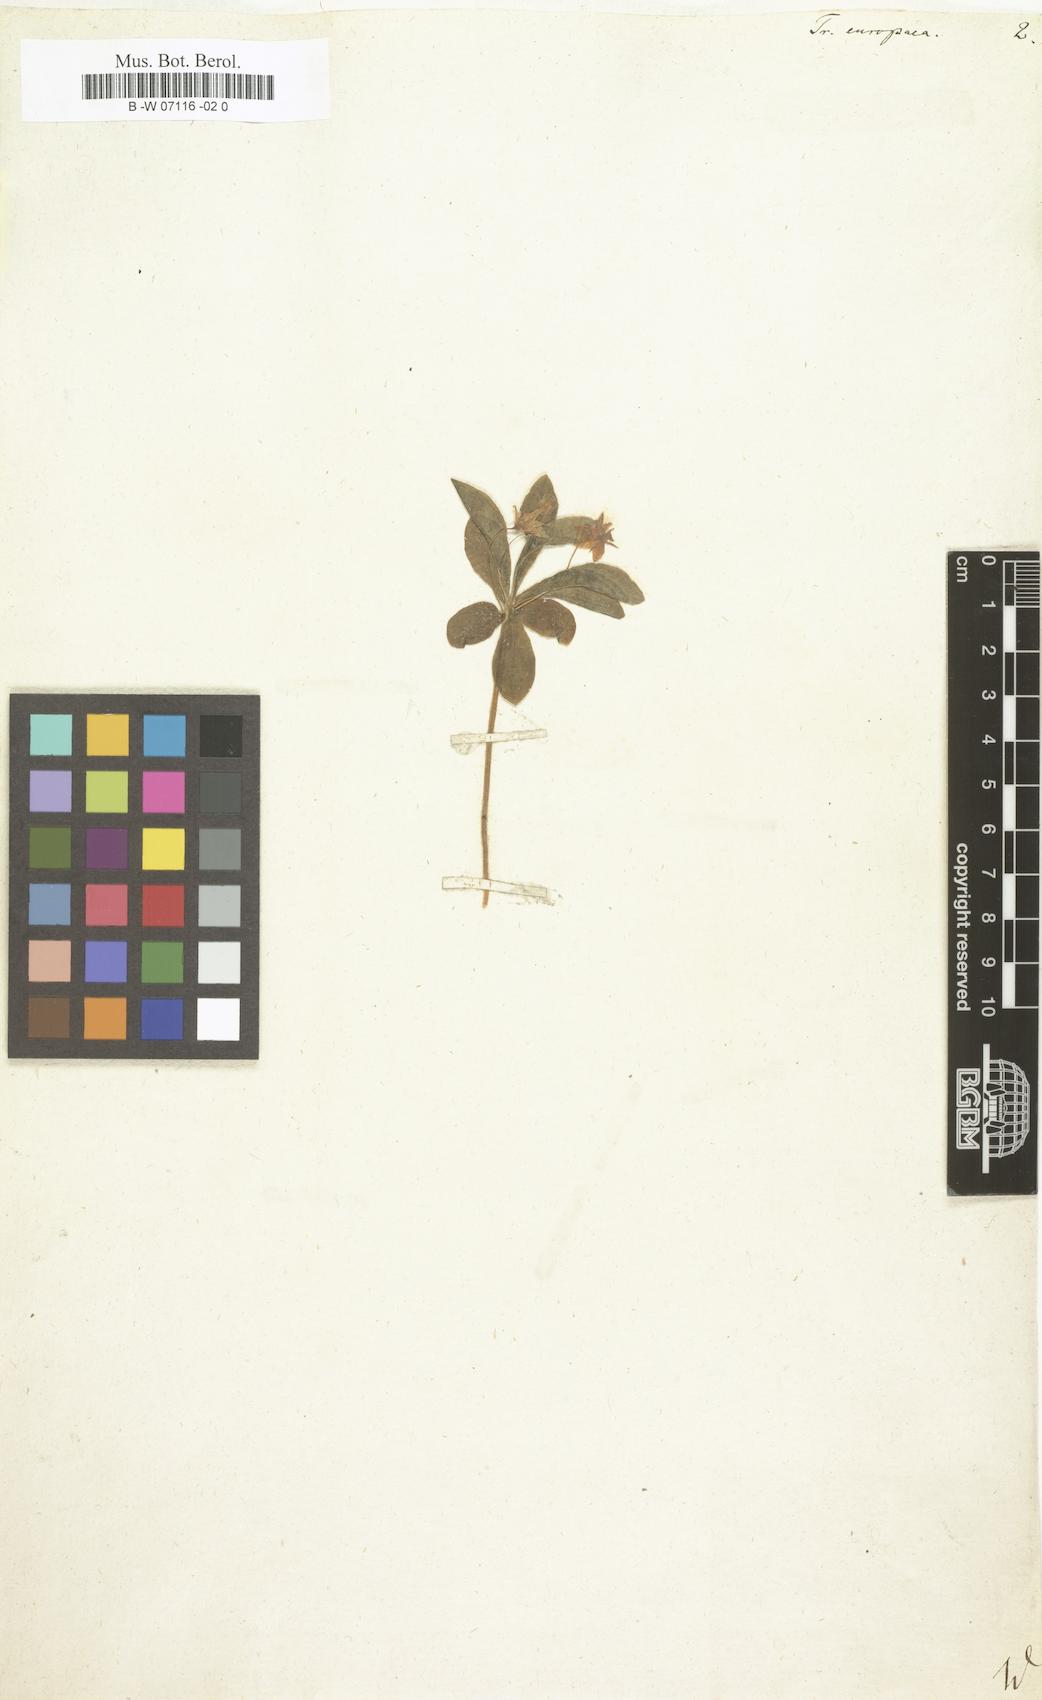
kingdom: Plantae
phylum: Tracheophyta
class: Magnoliopsida
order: Ericales
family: Primulaceae
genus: Lysimachia
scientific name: Lysimachia
